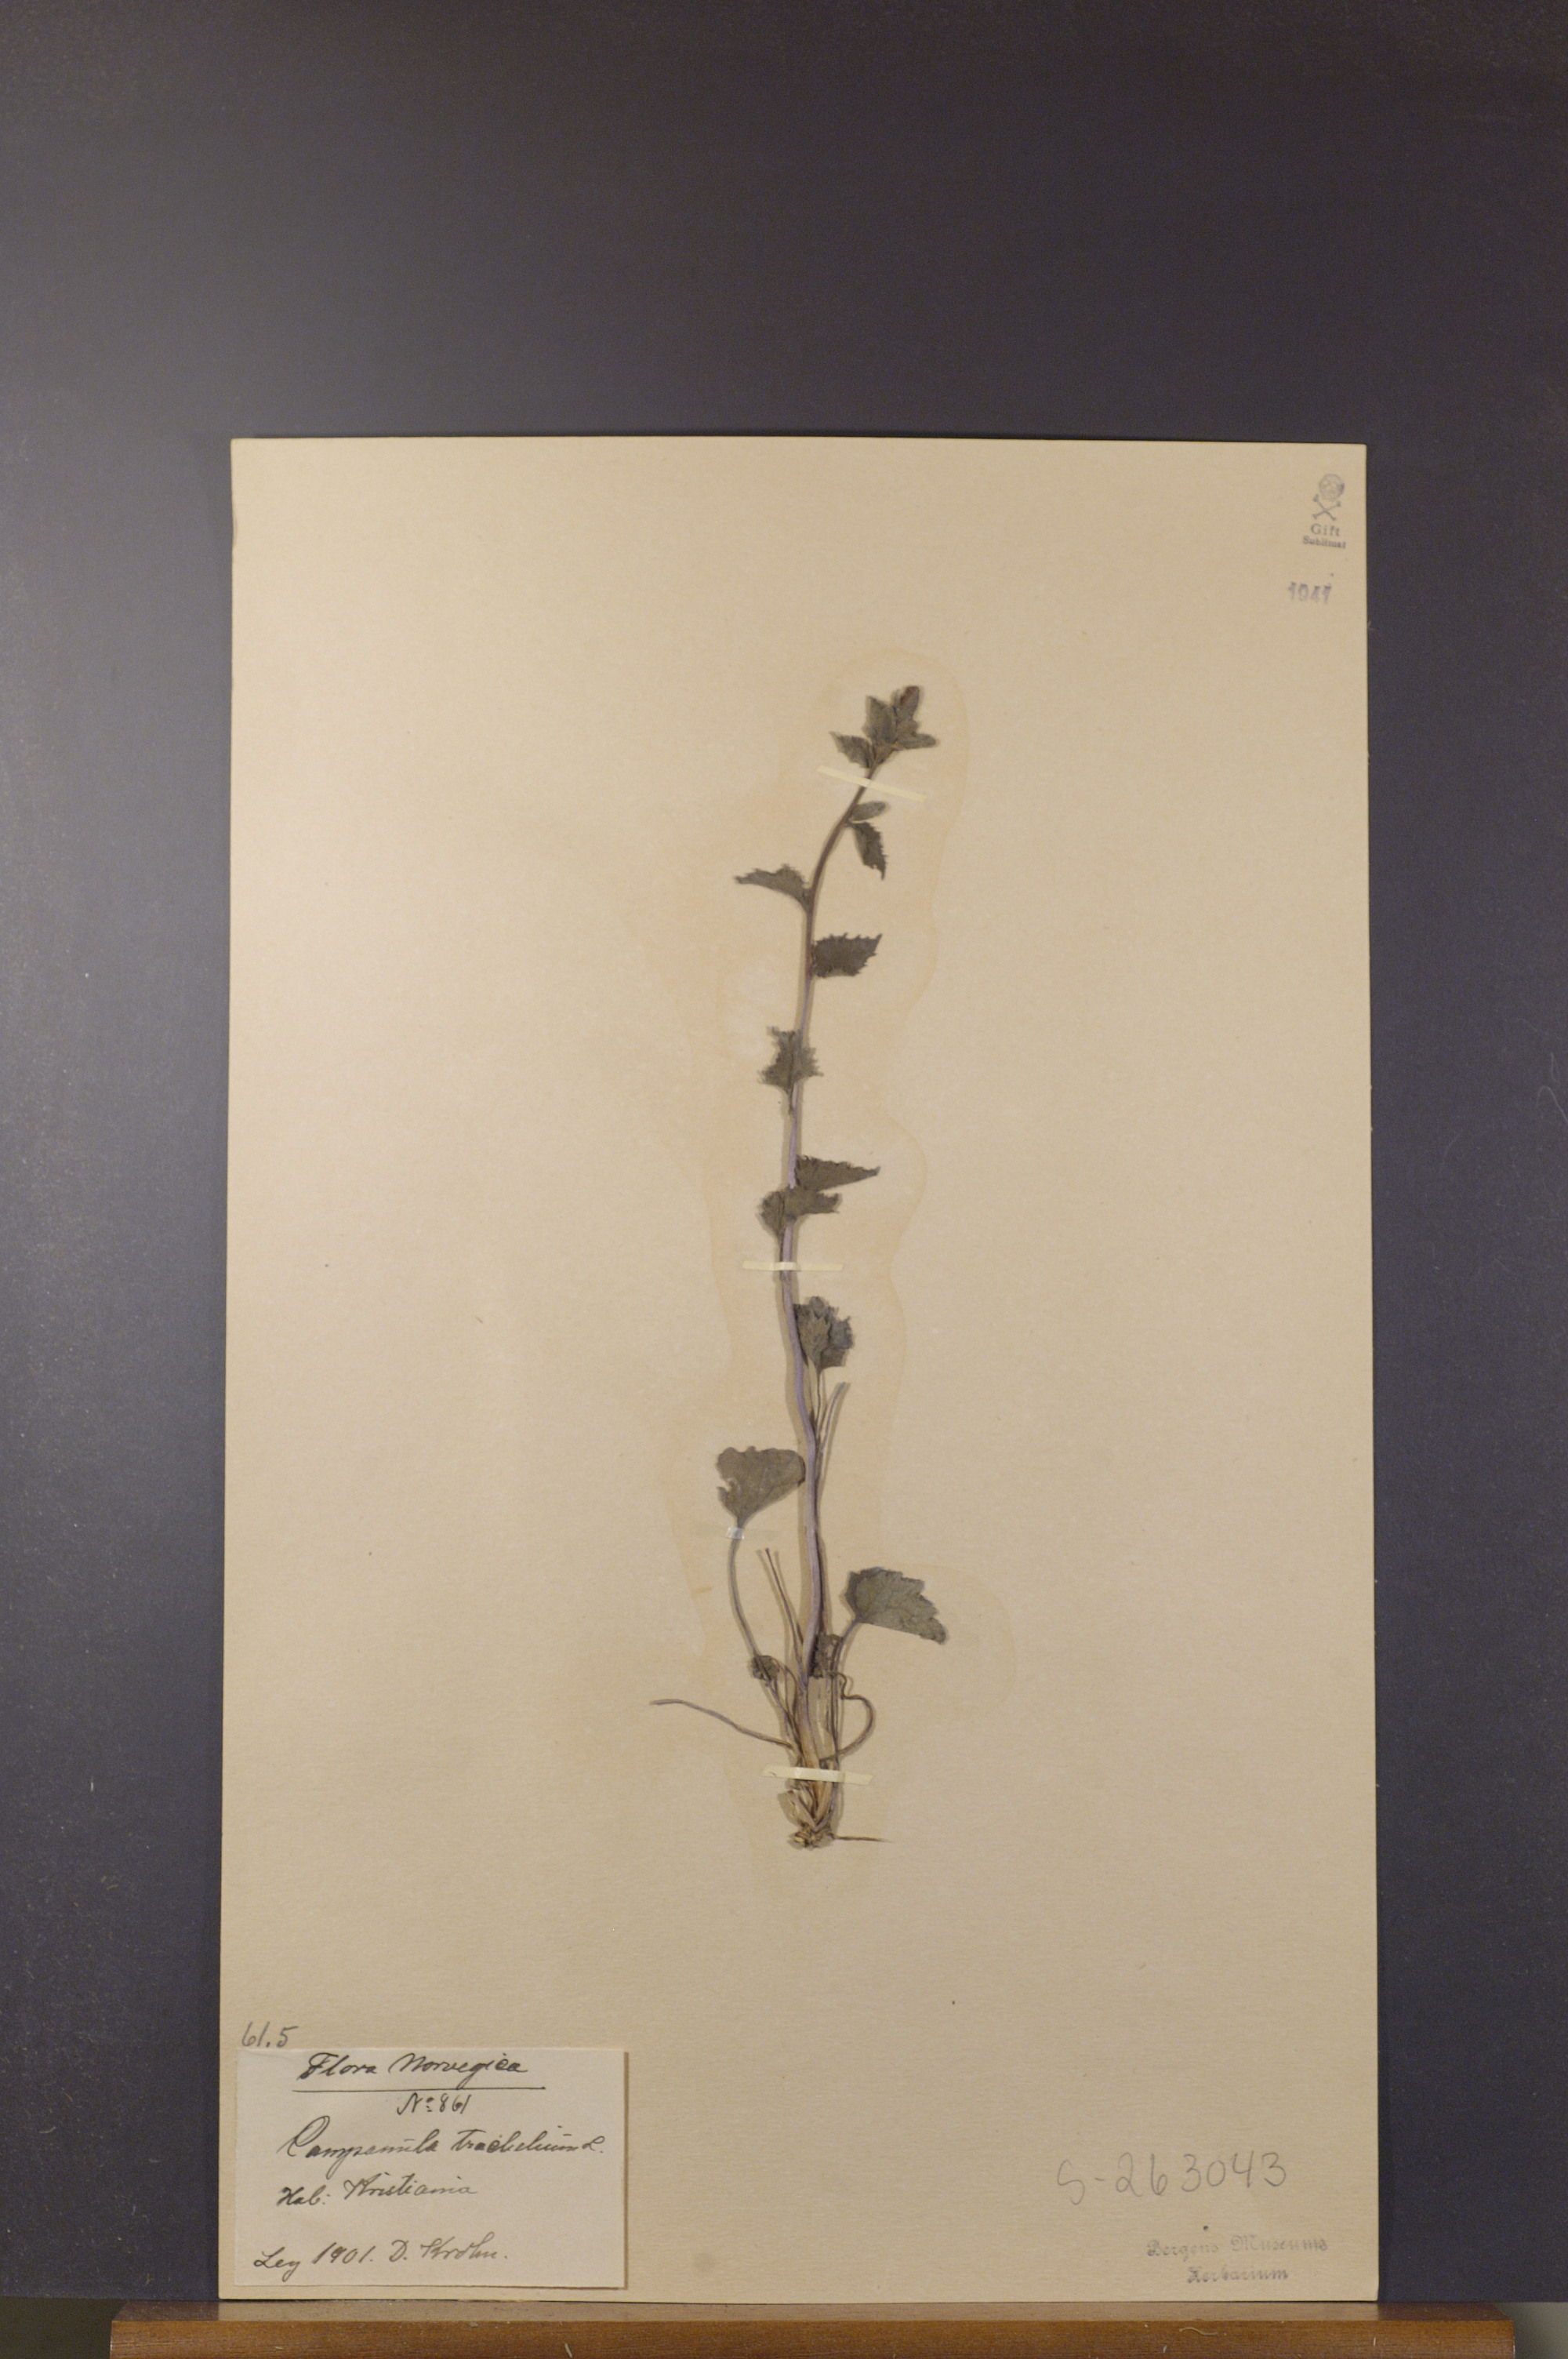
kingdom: Plantae
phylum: Tracheophyta
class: Magnoliopsida
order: Asterales
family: Campanulaceae
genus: Campanula
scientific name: Campanula trachelium
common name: Nettle-leaved bellflower
